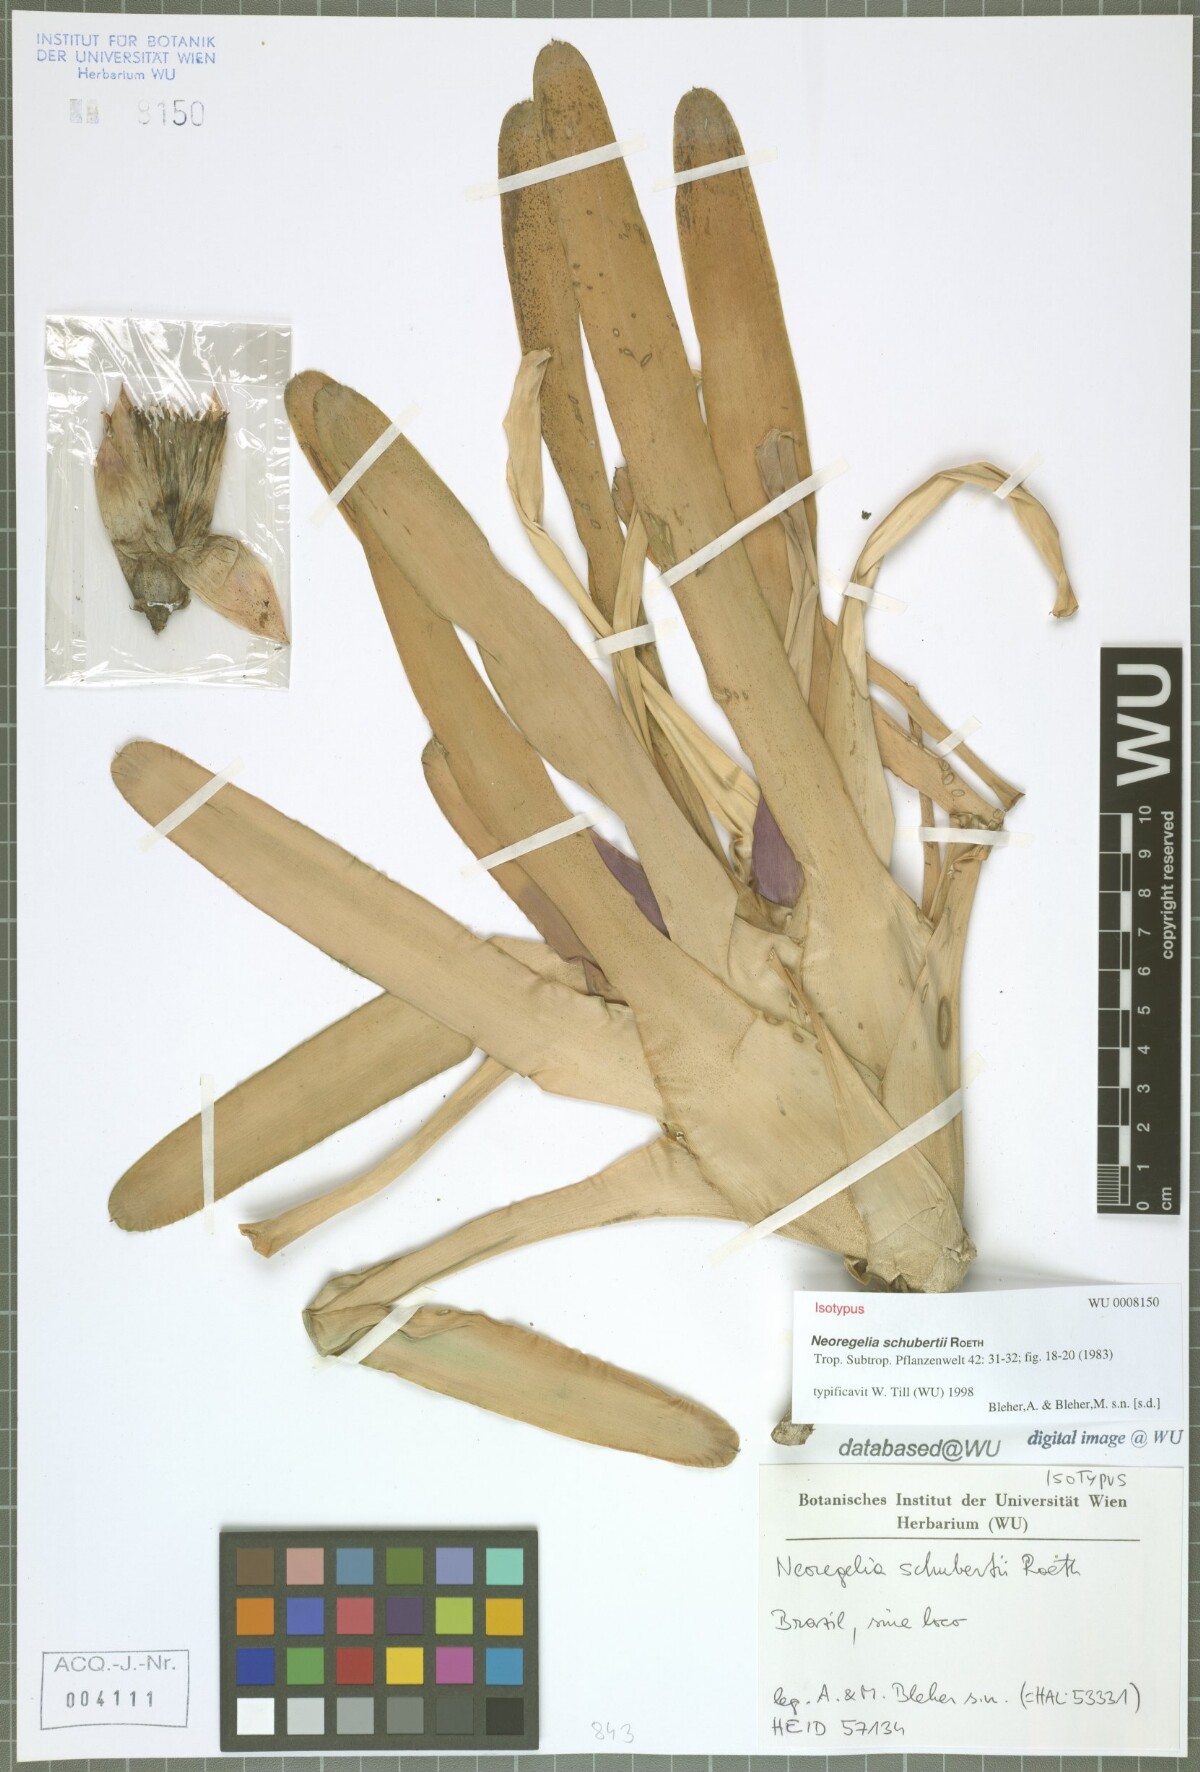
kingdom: Plantae
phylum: Tracheophyta
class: Liliopsida
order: Poales
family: Bromeliaceae
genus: Neoregelia
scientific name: Neoregelia schubertii
